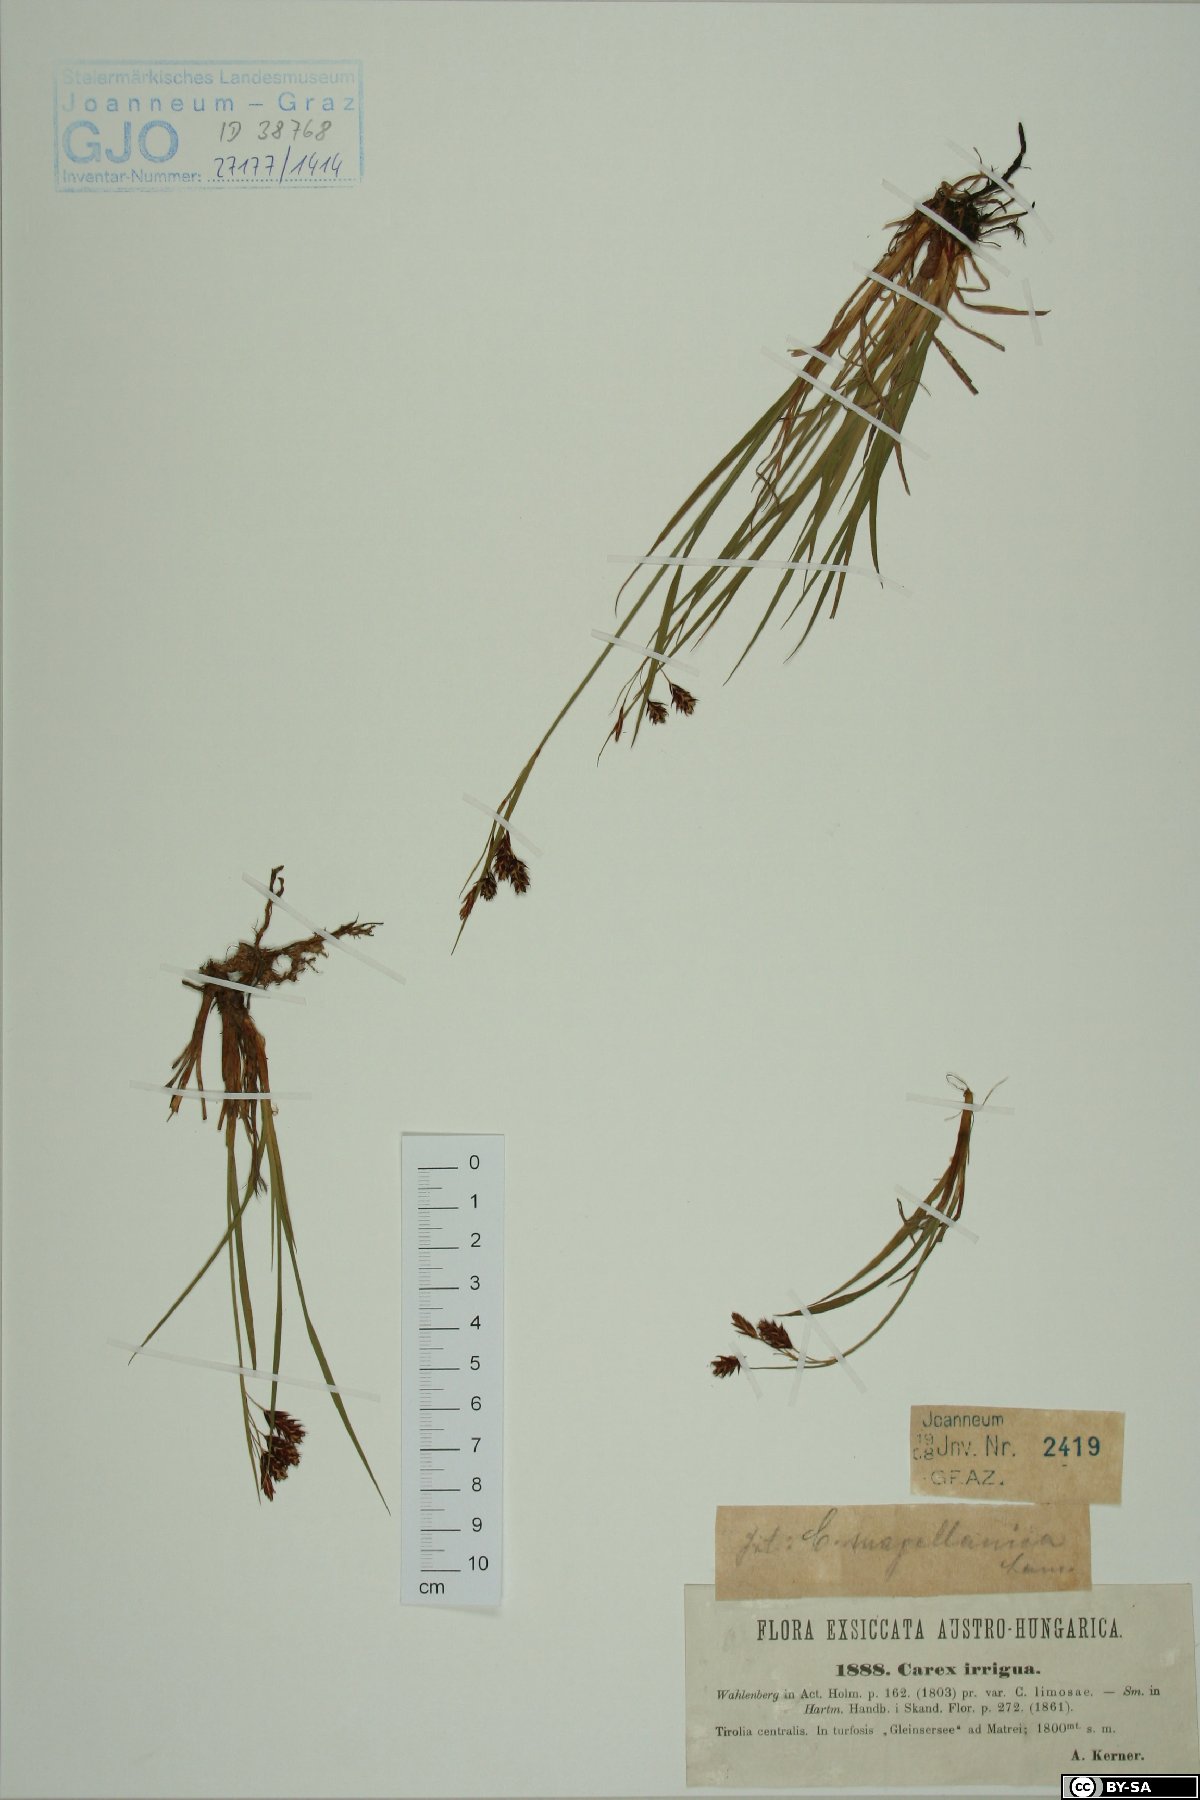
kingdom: Plantae
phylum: Tracheophyta
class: Liliopsida
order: Poales
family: Cyperaceae
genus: Carex
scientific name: Carex magellanica
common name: Bog sedge
